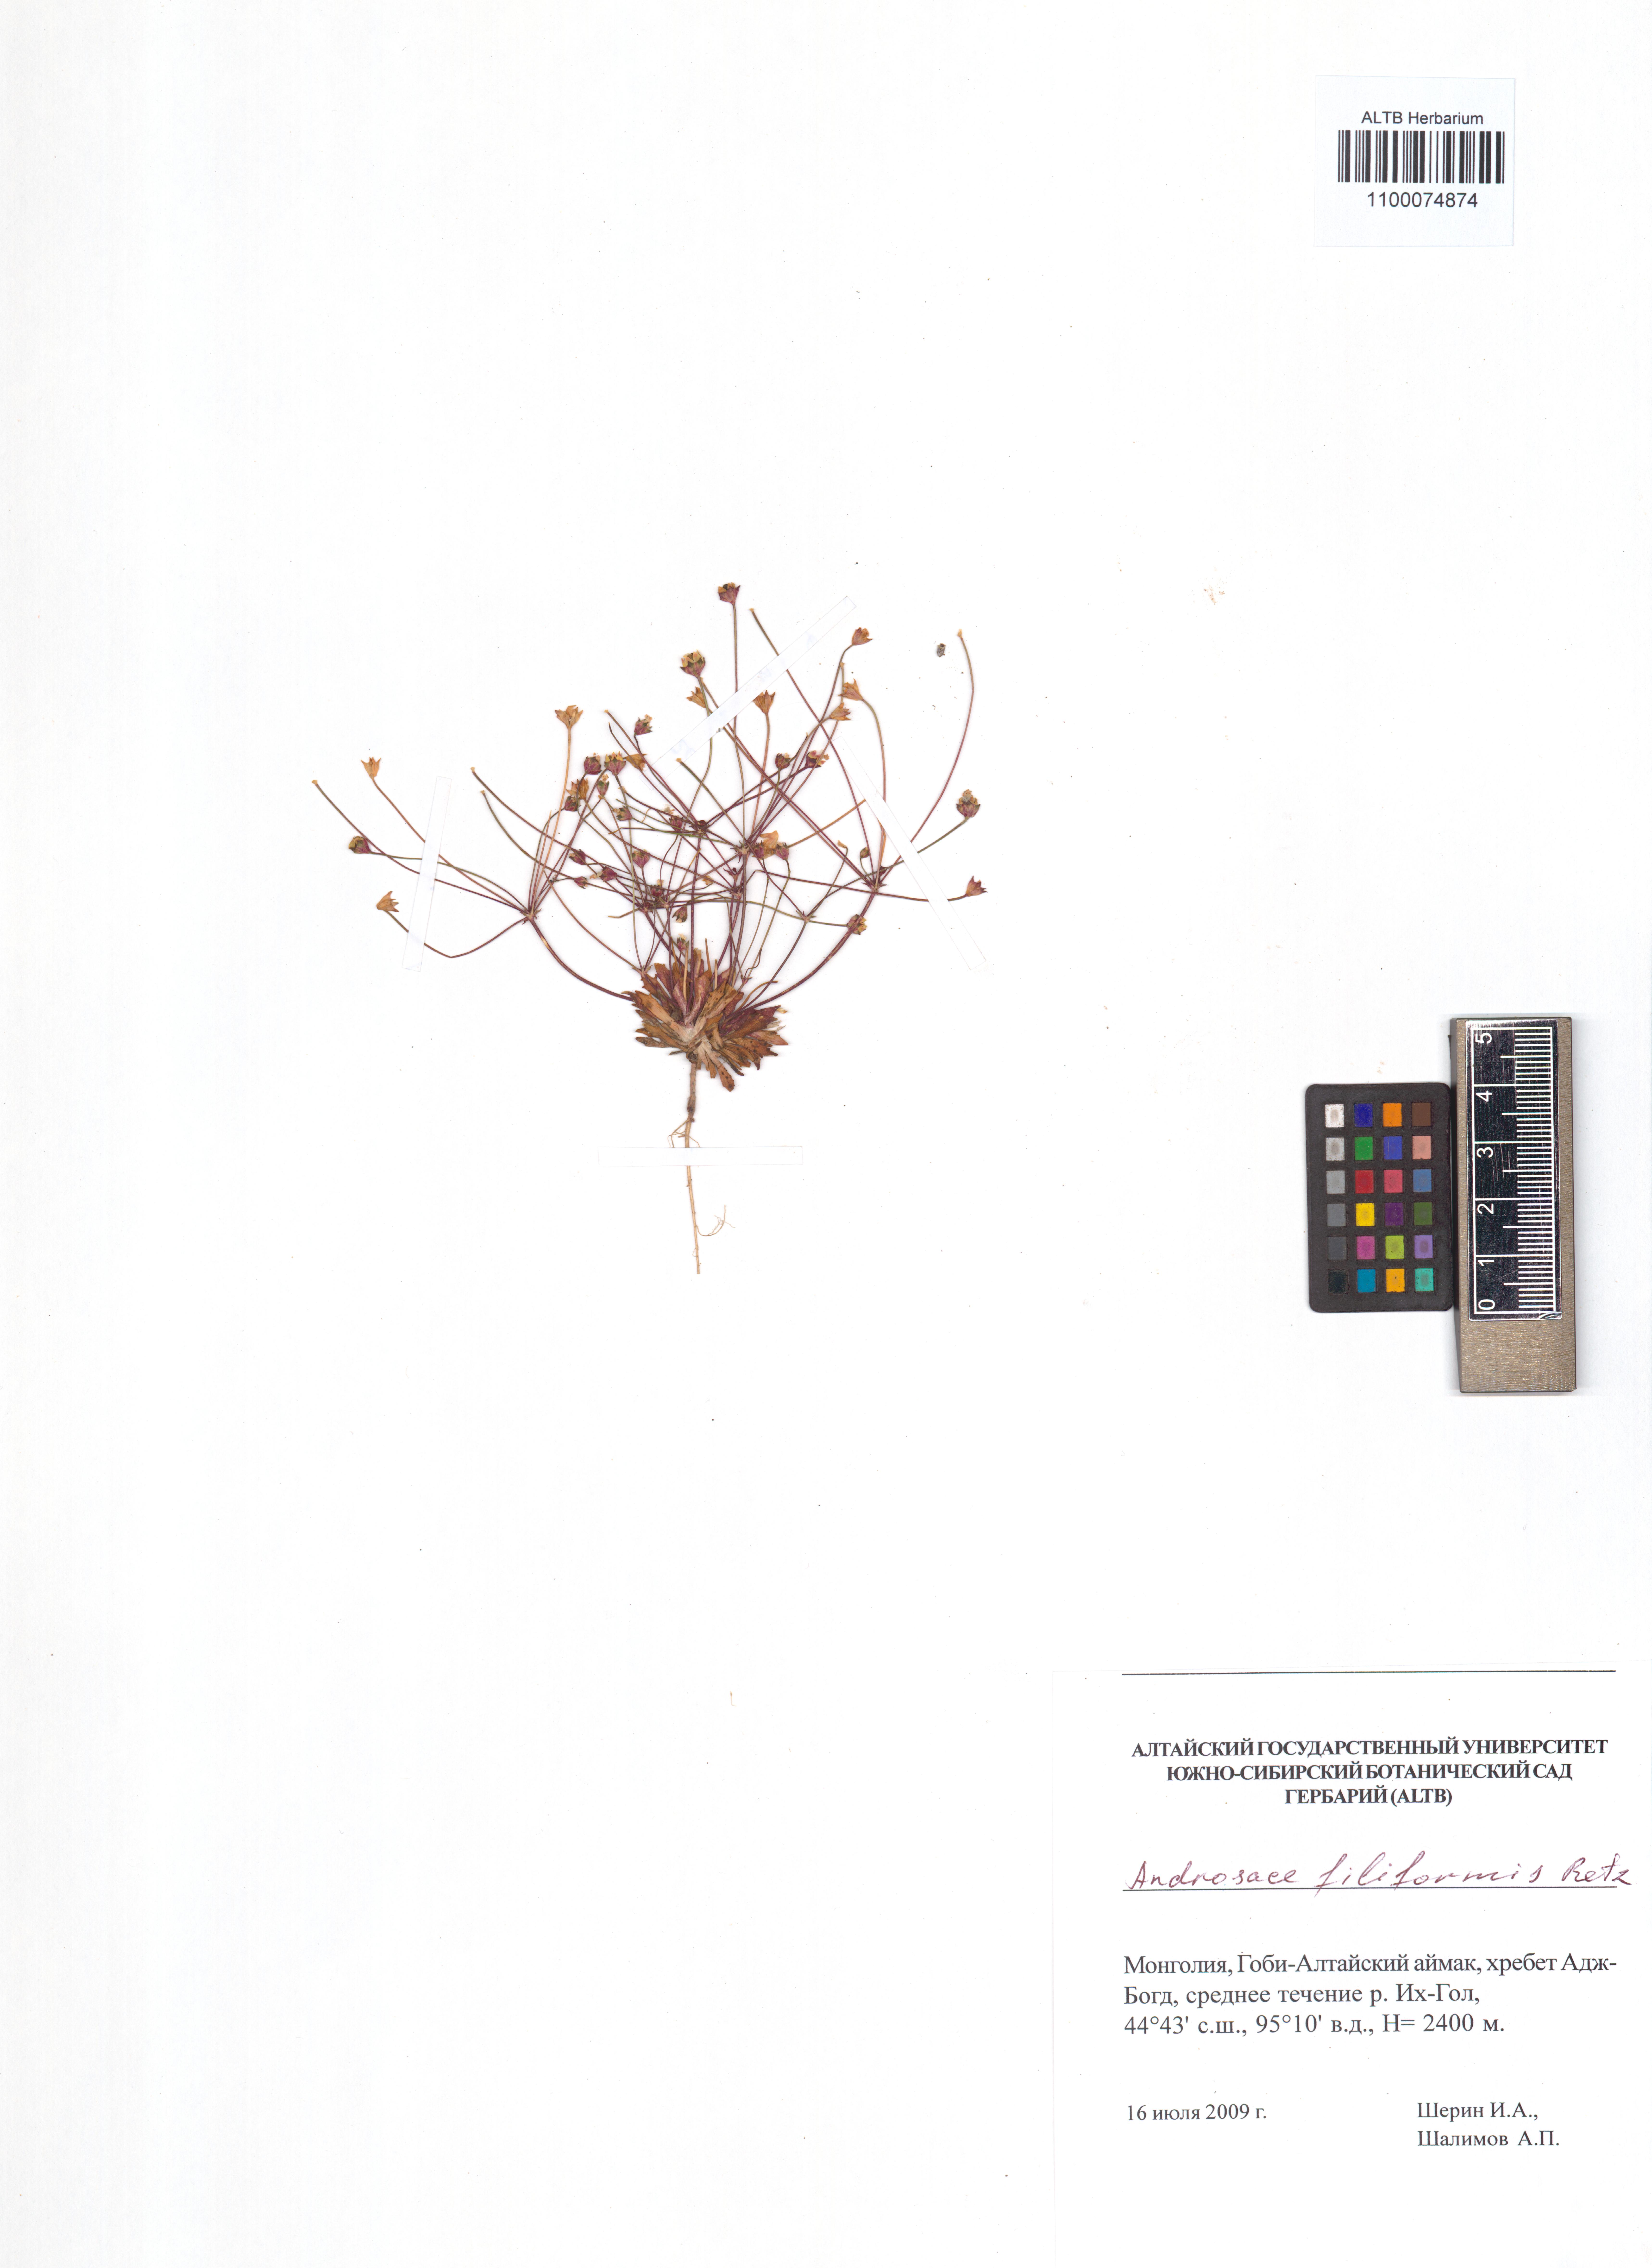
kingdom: Plantae
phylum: Tracheophyta
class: Magnoliopsida
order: Ericales
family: Primulaceae
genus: Androsace
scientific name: Androsace filiformis
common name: Filiform rock jasmine
